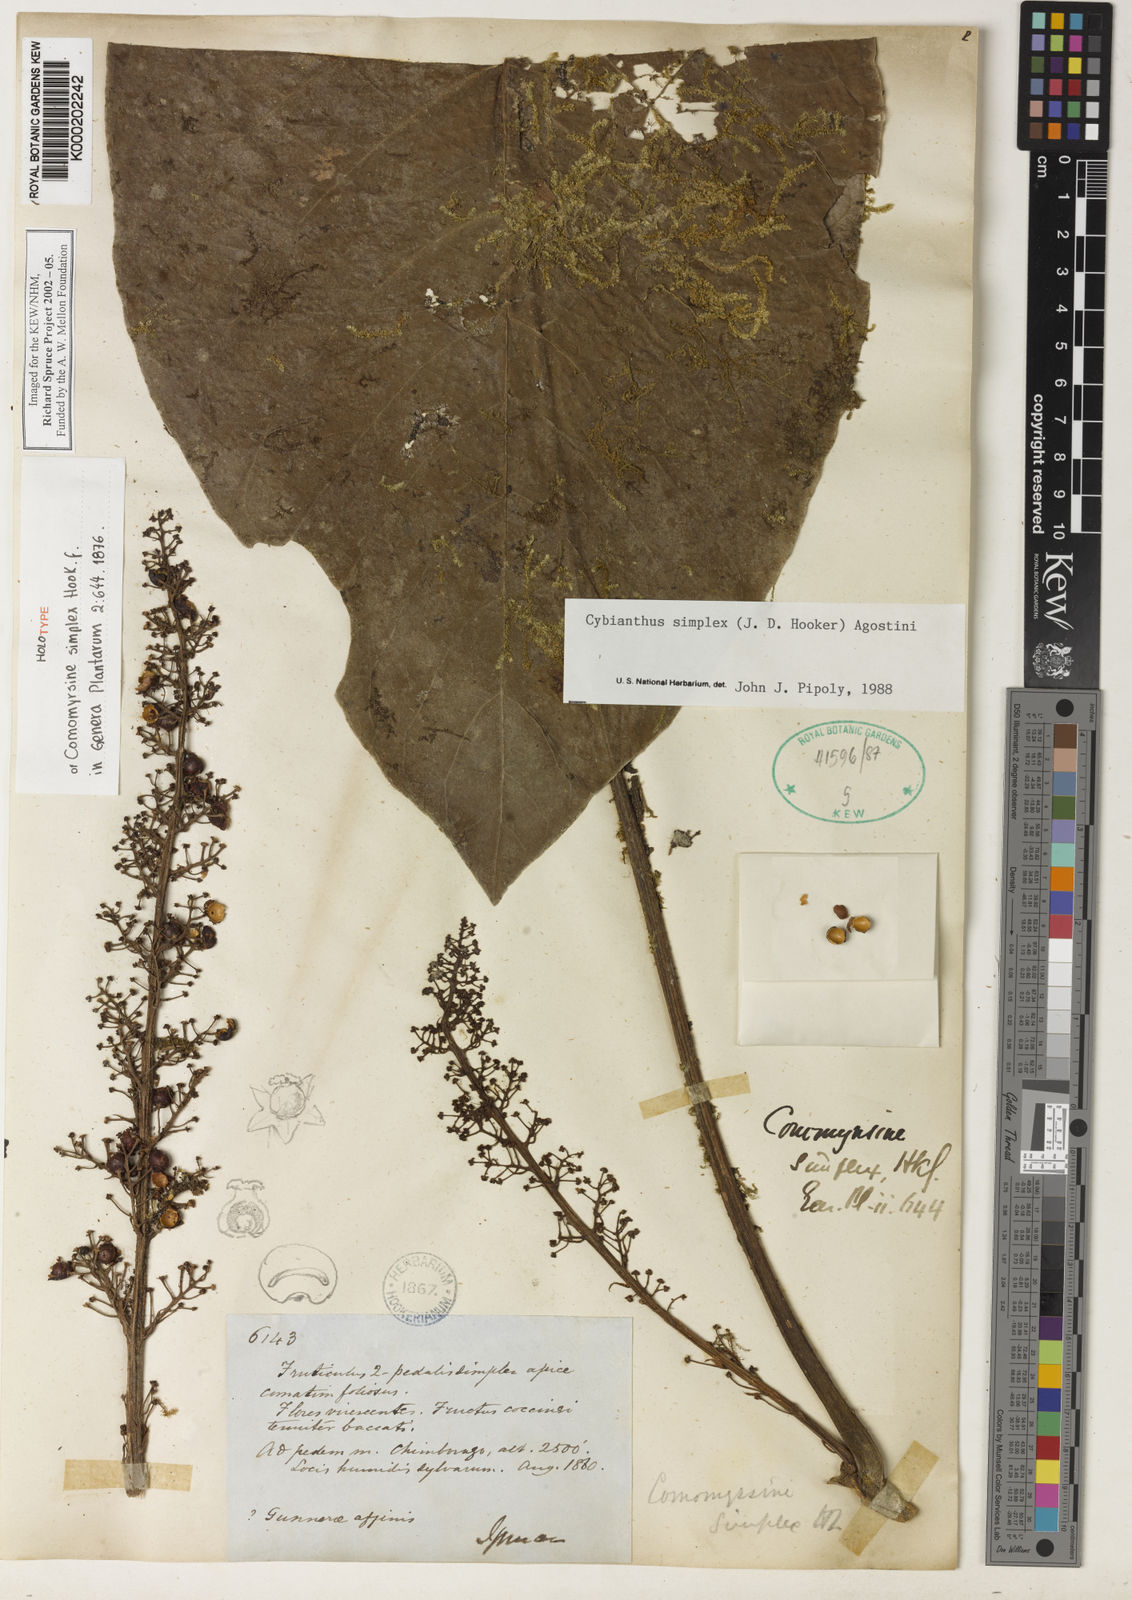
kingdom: Plantae
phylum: Tracheophyta
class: Magnoliopsida
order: Ericales
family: Primulaceae
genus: Cybianthus
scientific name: Cybianthus simplex
